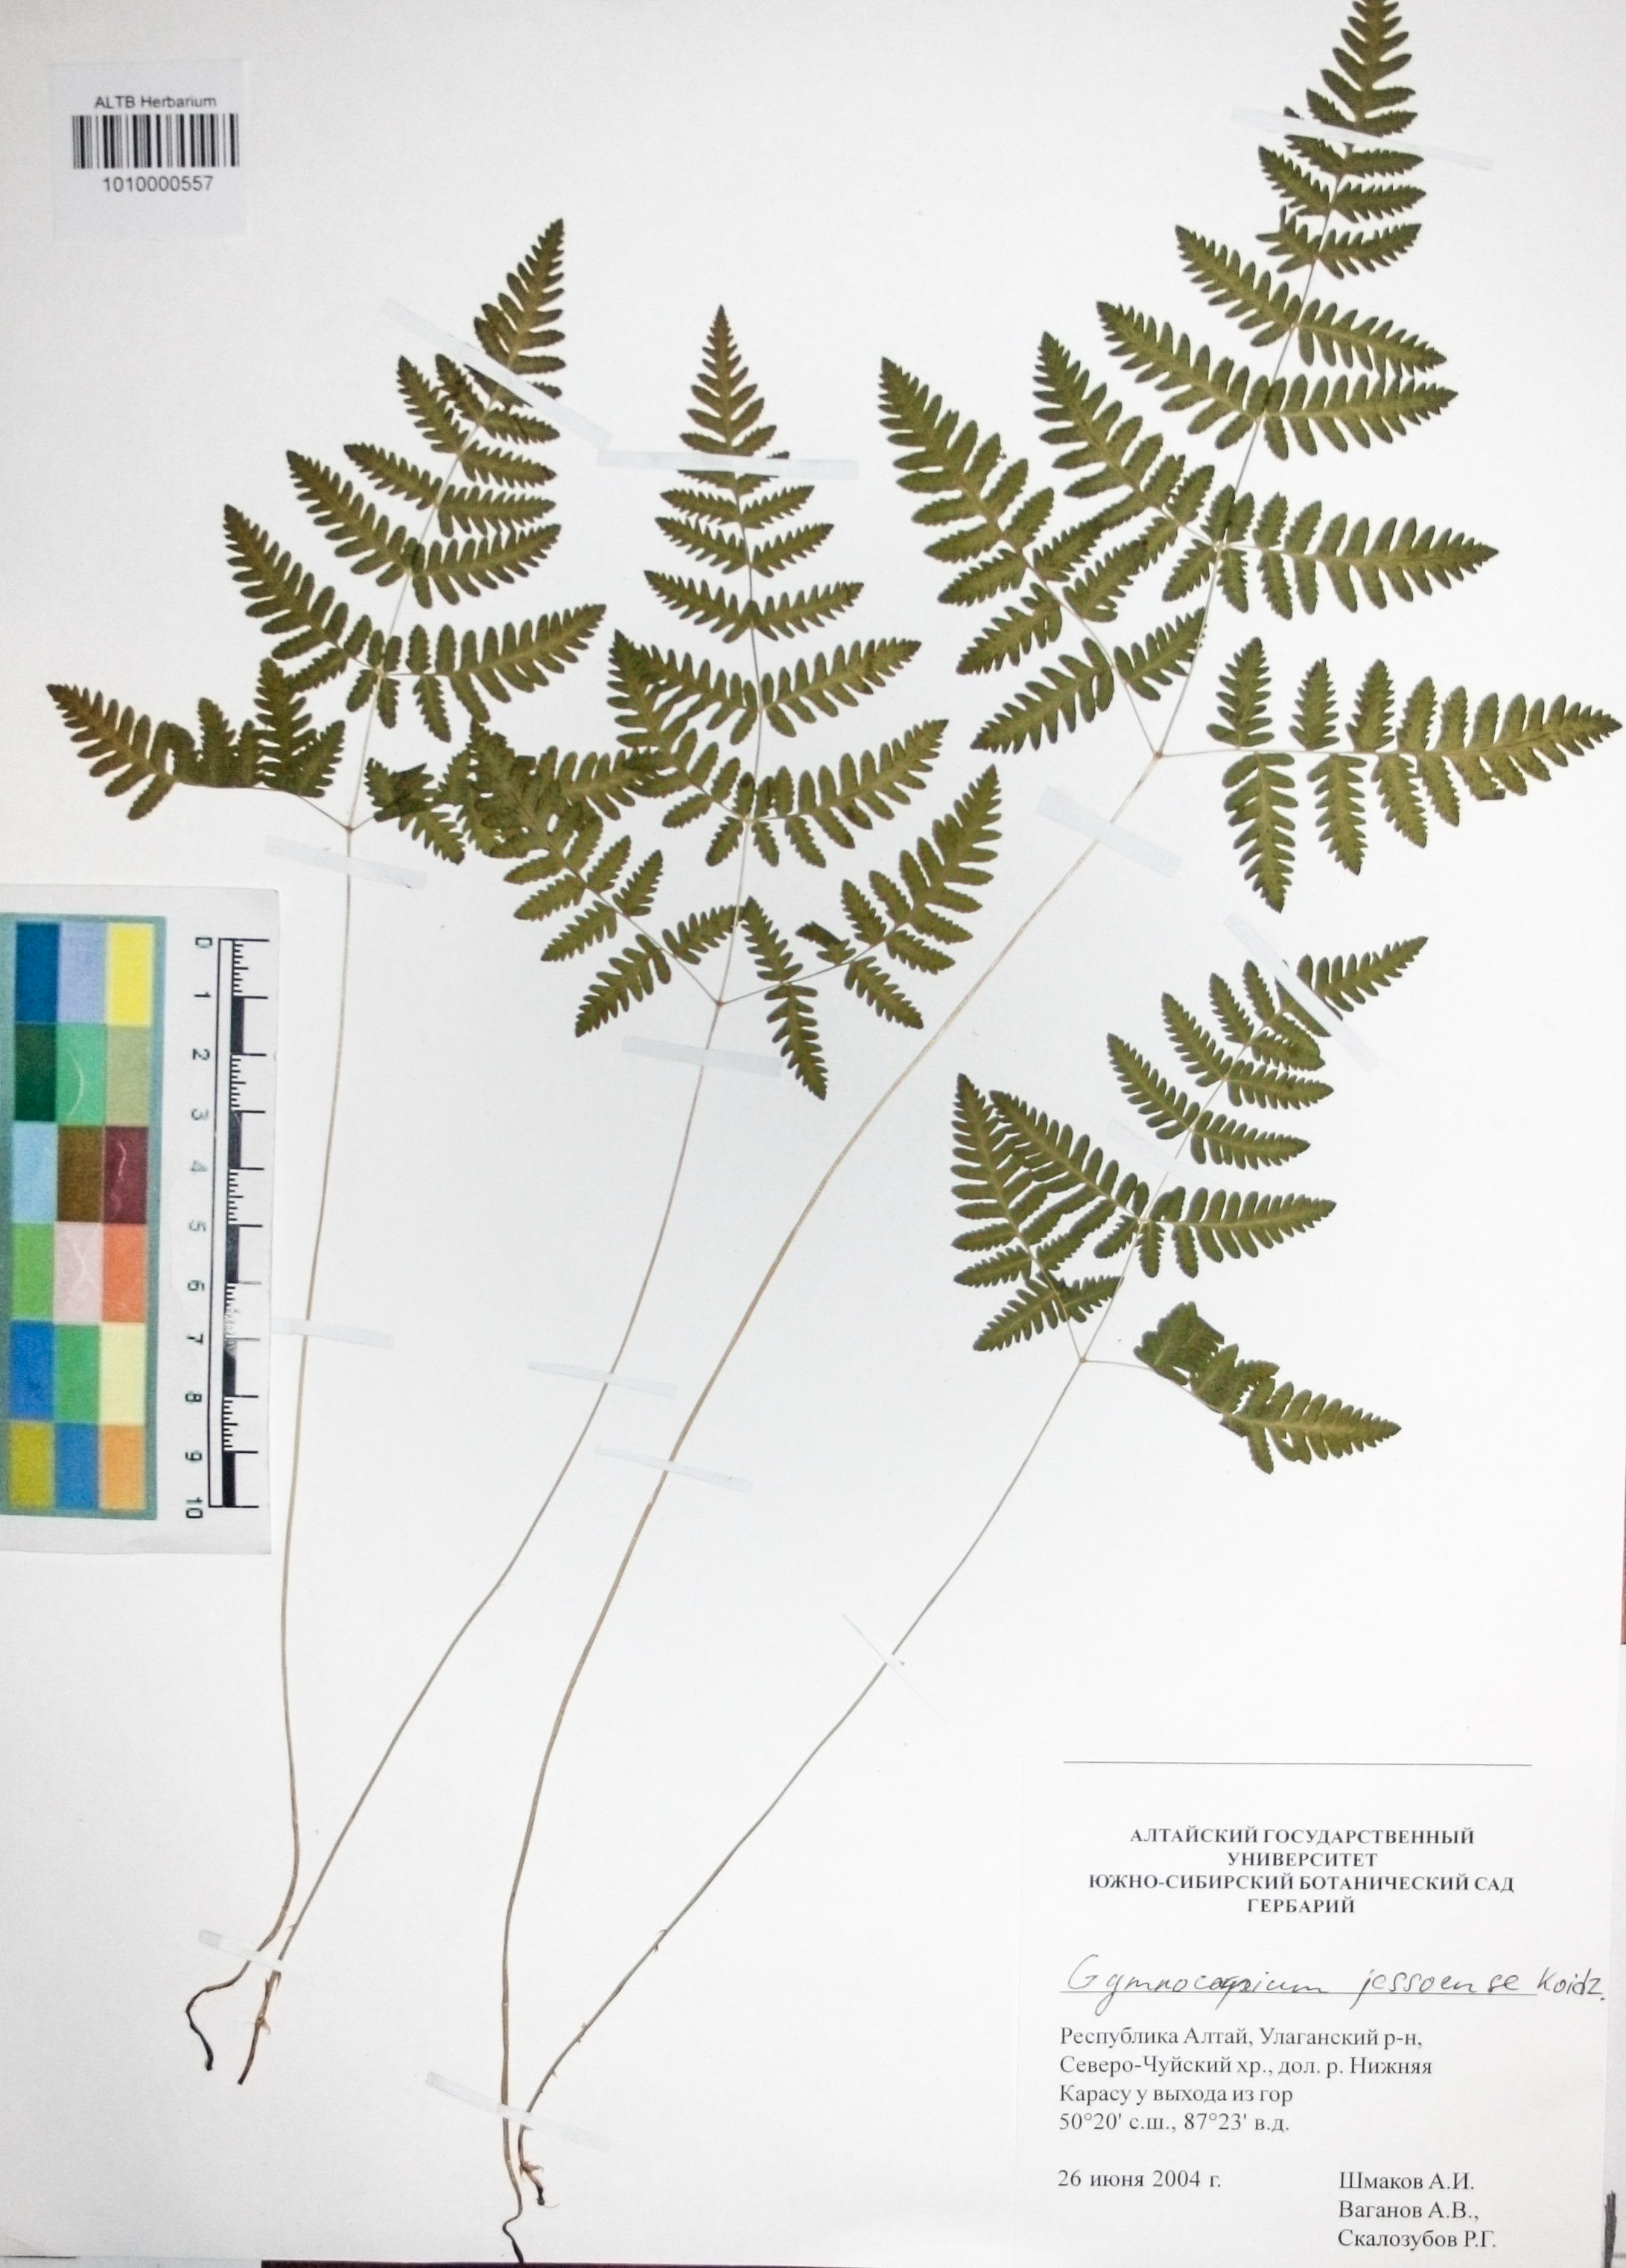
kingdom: Plantae
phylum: Tracheophyta
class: Polypodiopsida
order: Polypodiales
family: Cystopteridaceae
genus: Gymnocarpium
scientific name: Gymnocarpium jessoense
